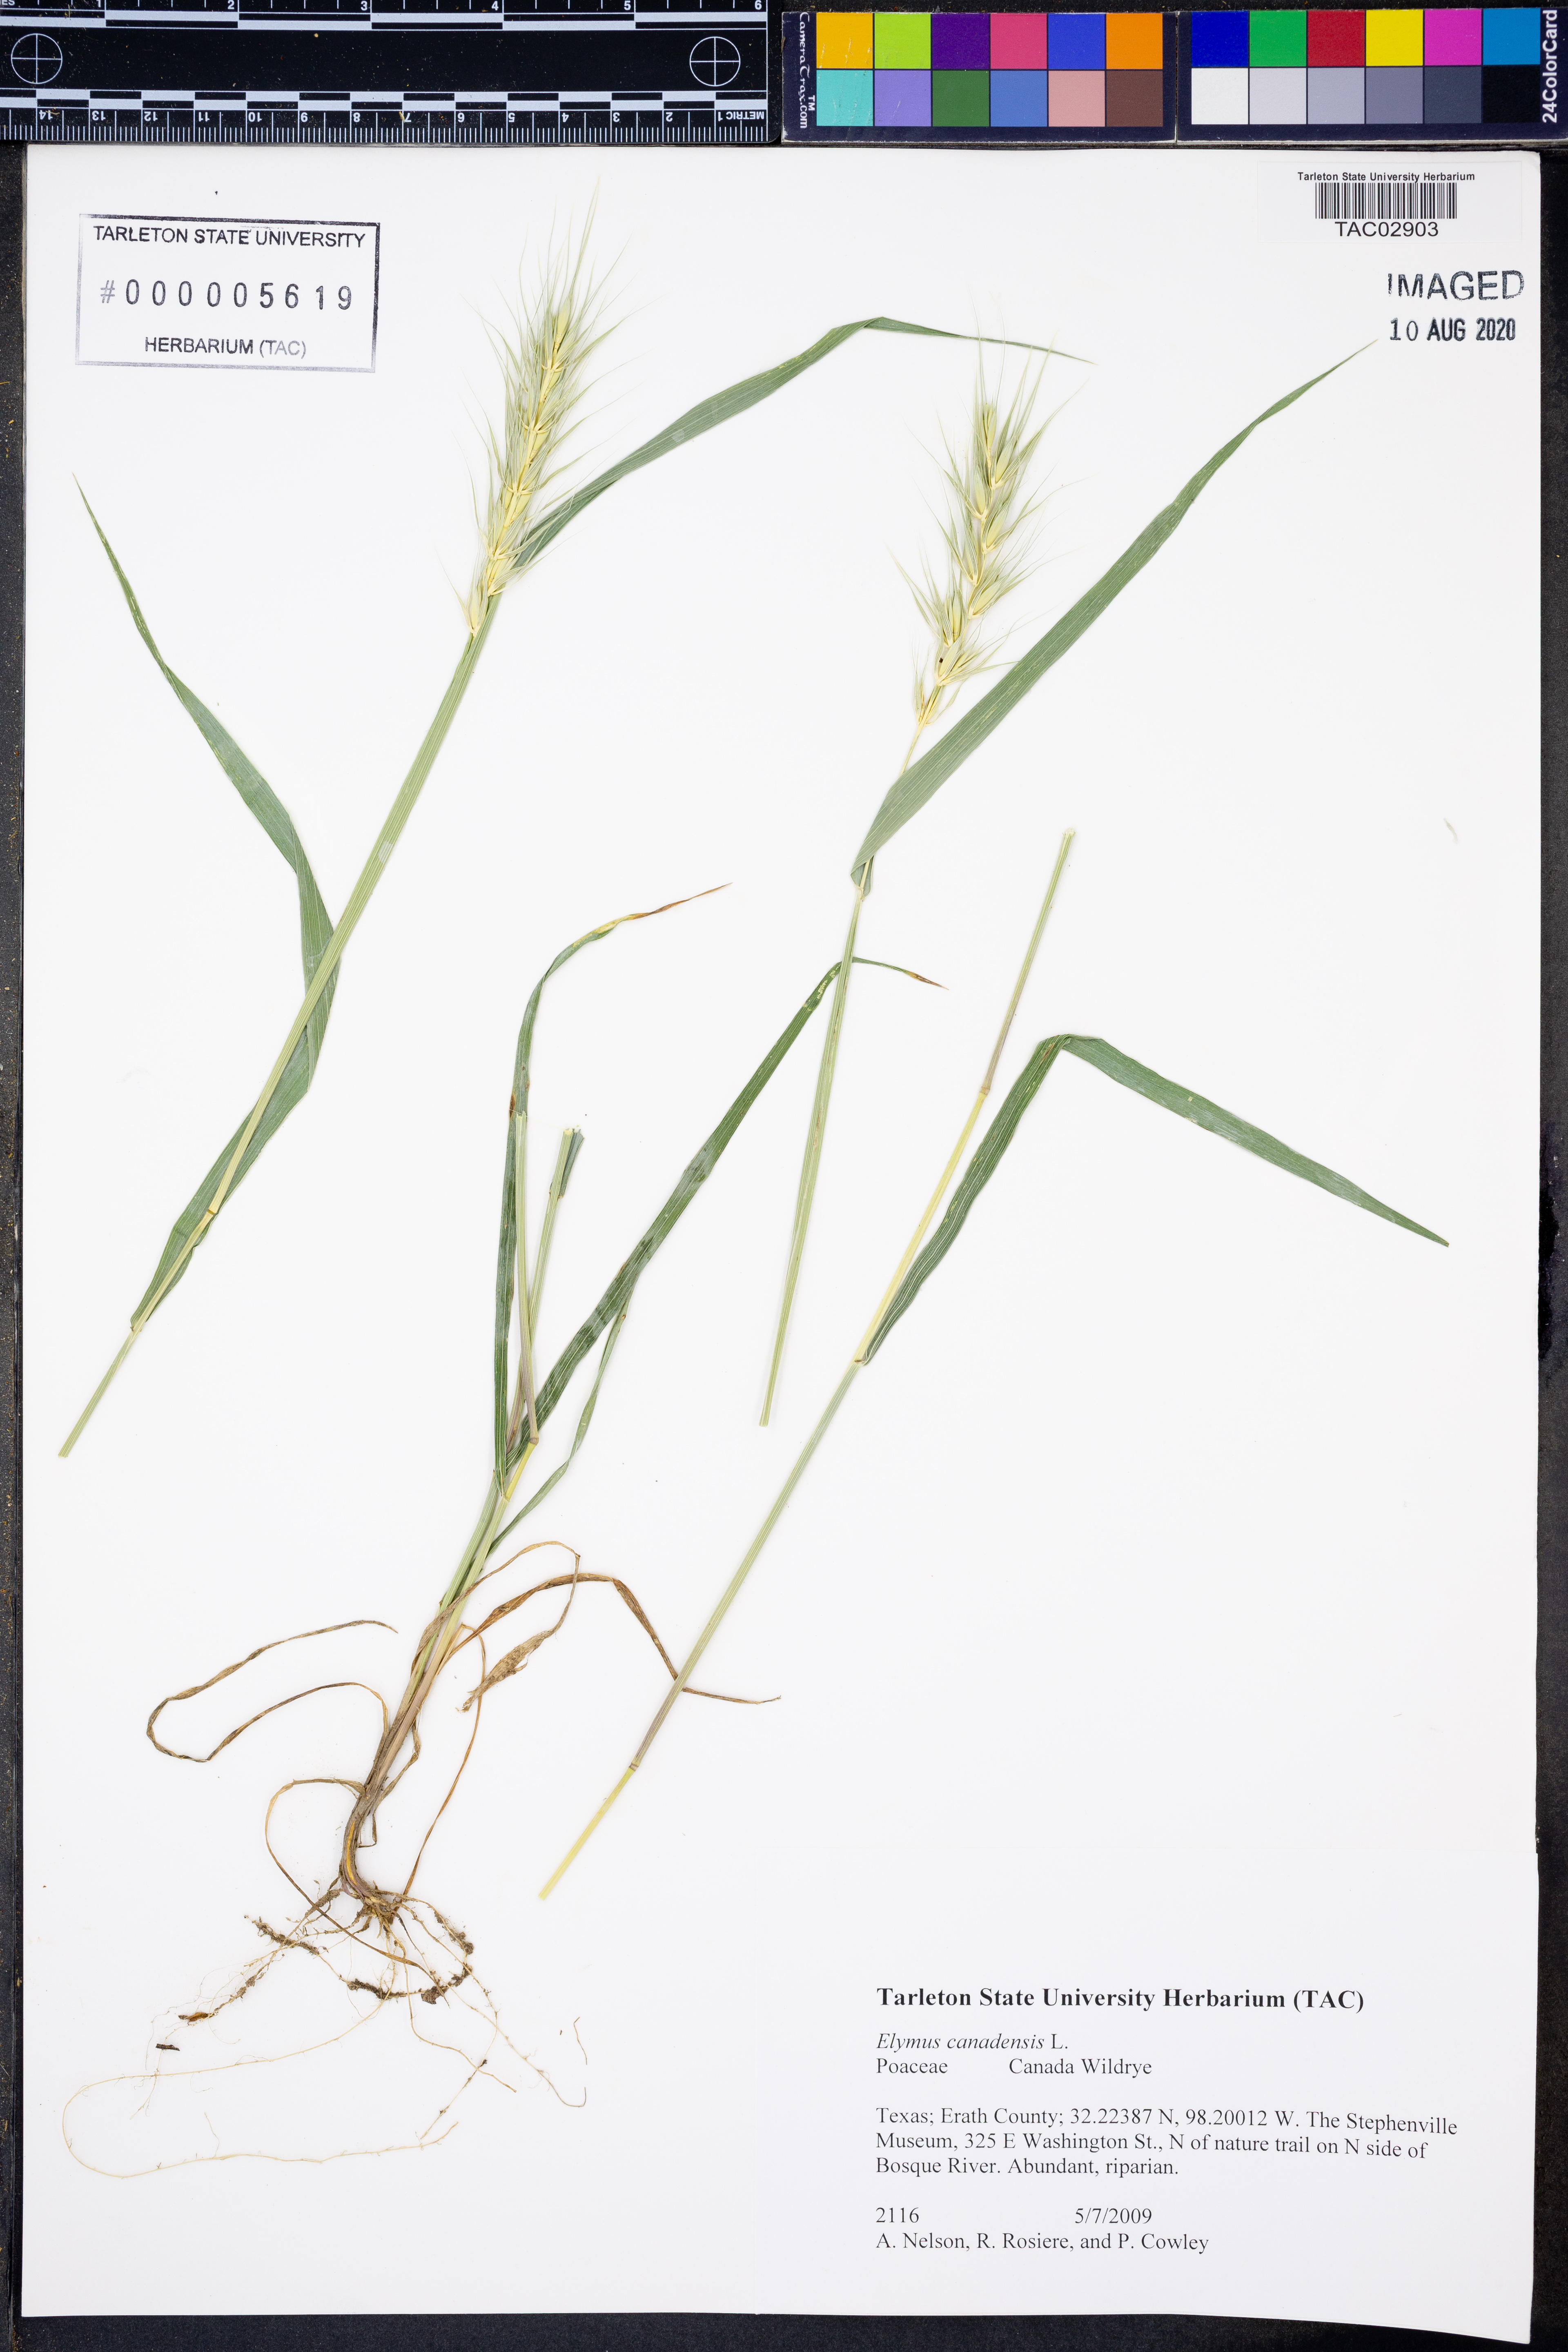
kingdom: Plantae
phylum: Tracheophyta
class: Liliopsida
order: Poales
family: Poaceae
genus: Elymus
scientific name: Elymus canadensis
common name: Canada wild rye
